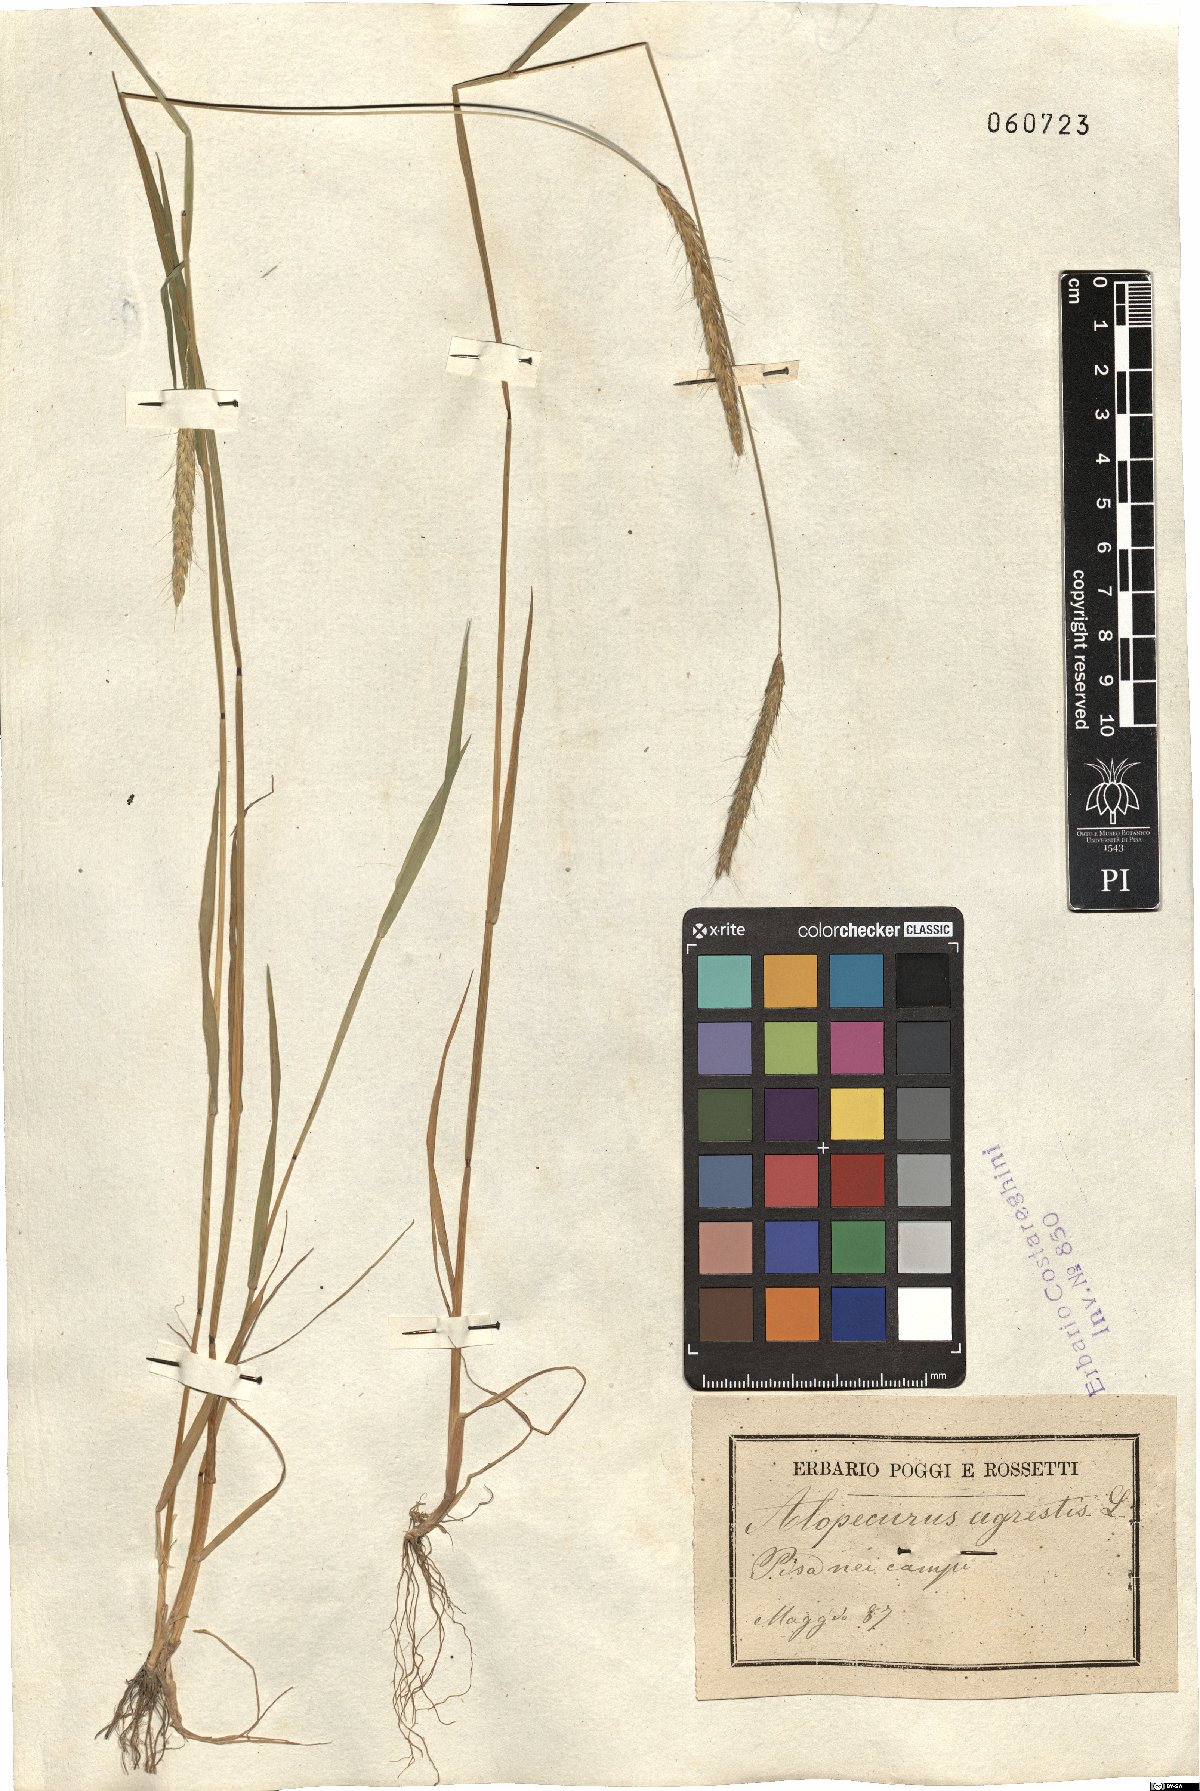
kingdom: Plantae
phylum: Tracheophyta
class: Liliopsida
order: Poales
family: Poaceae
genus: Alopecurus
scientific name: Alopecurus myosuroides
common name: Black-grass
